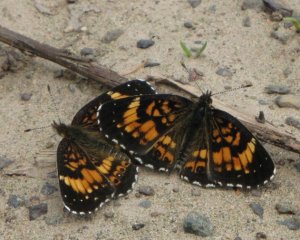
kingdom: Animalia
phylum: Arthropoda
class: Insecta
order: Lepidoptera
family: Nymphalidae
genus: Chlosyne
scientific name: Chlosyne nycteis
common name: Silvery Checkerspot
